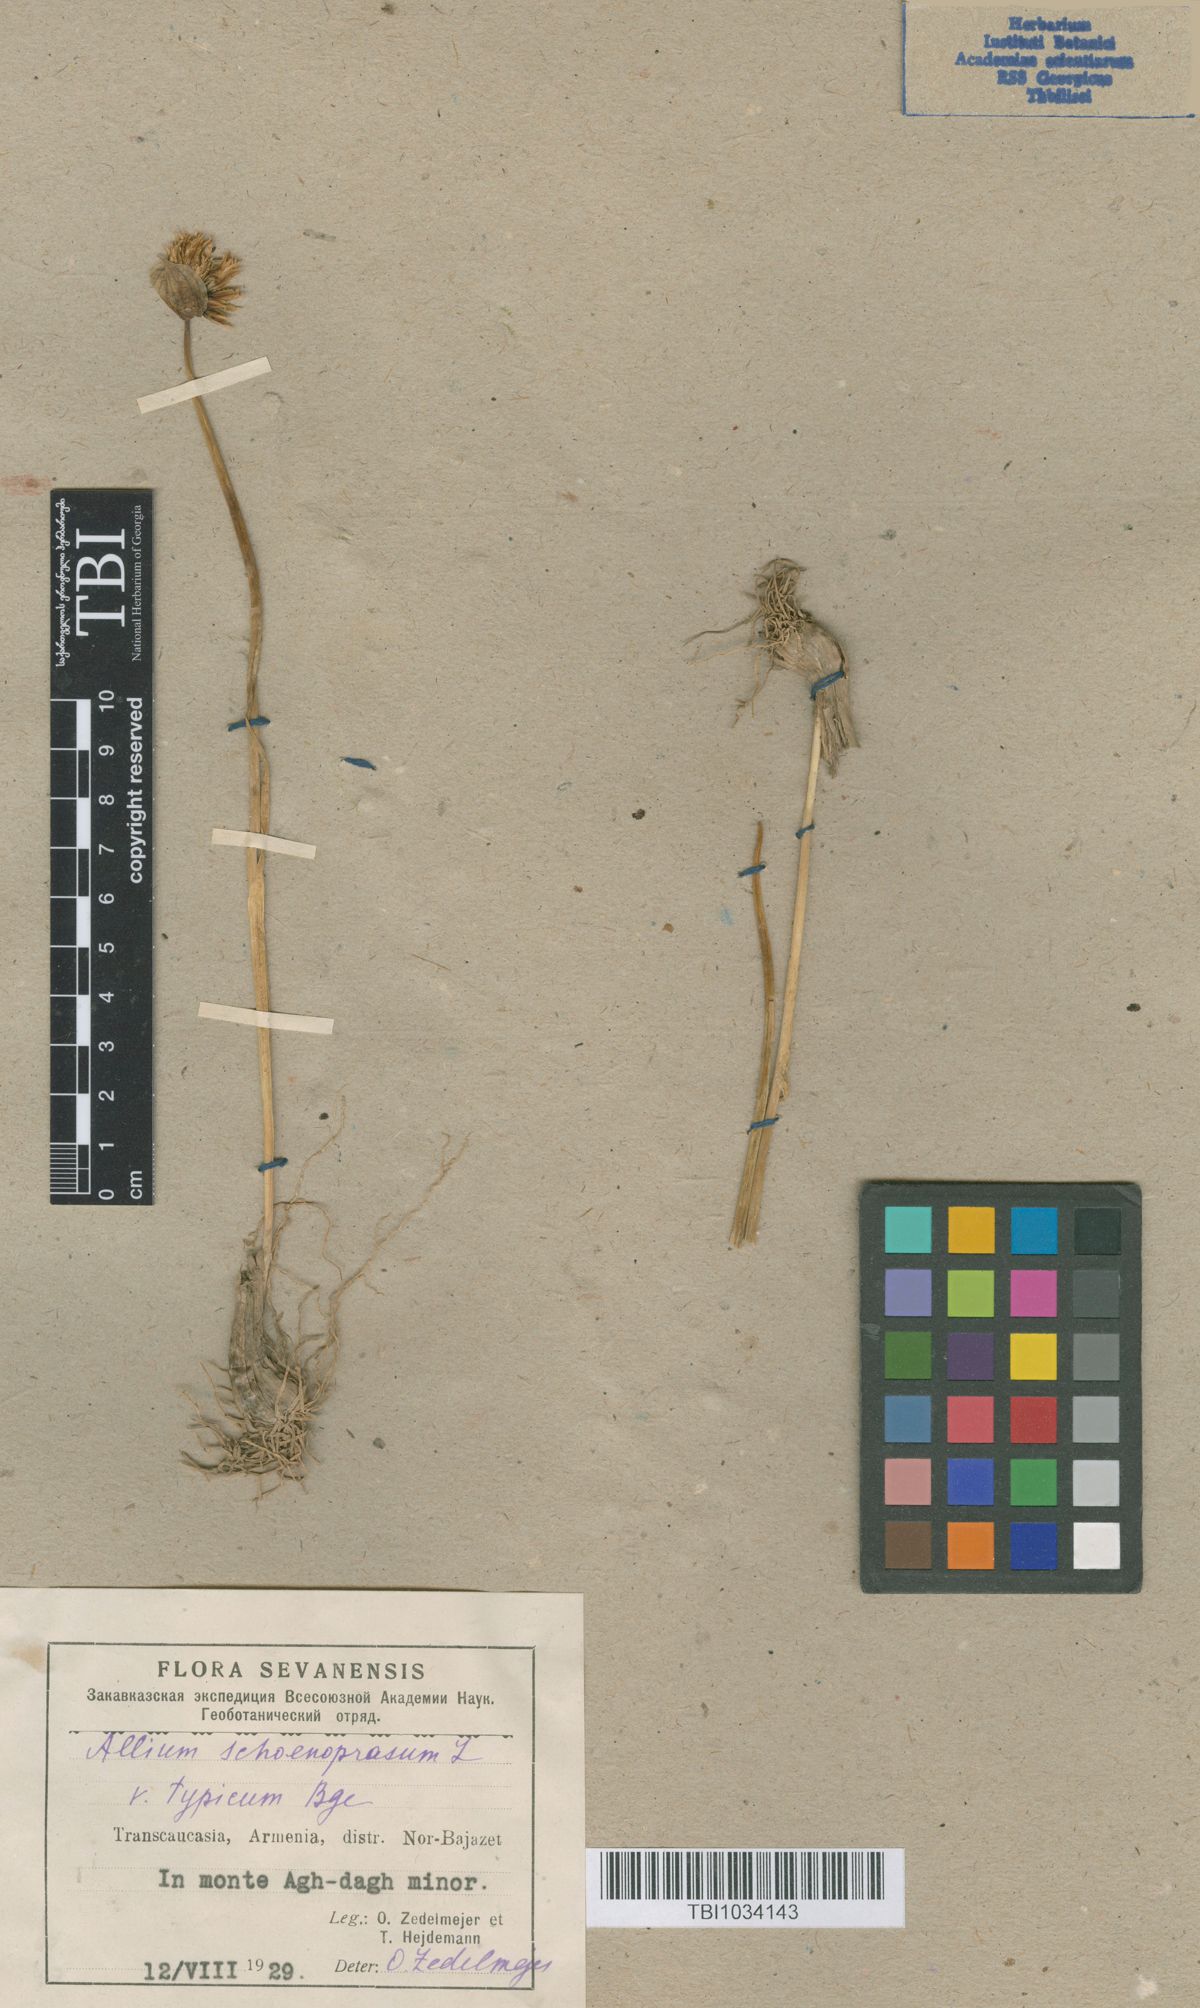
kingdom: Plantae
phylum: Tracheophyta
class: Liliopsida
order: Asparagales
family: Amaryllidaceae
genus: Allium
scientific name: Allium schoenoprasum
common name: Chives
